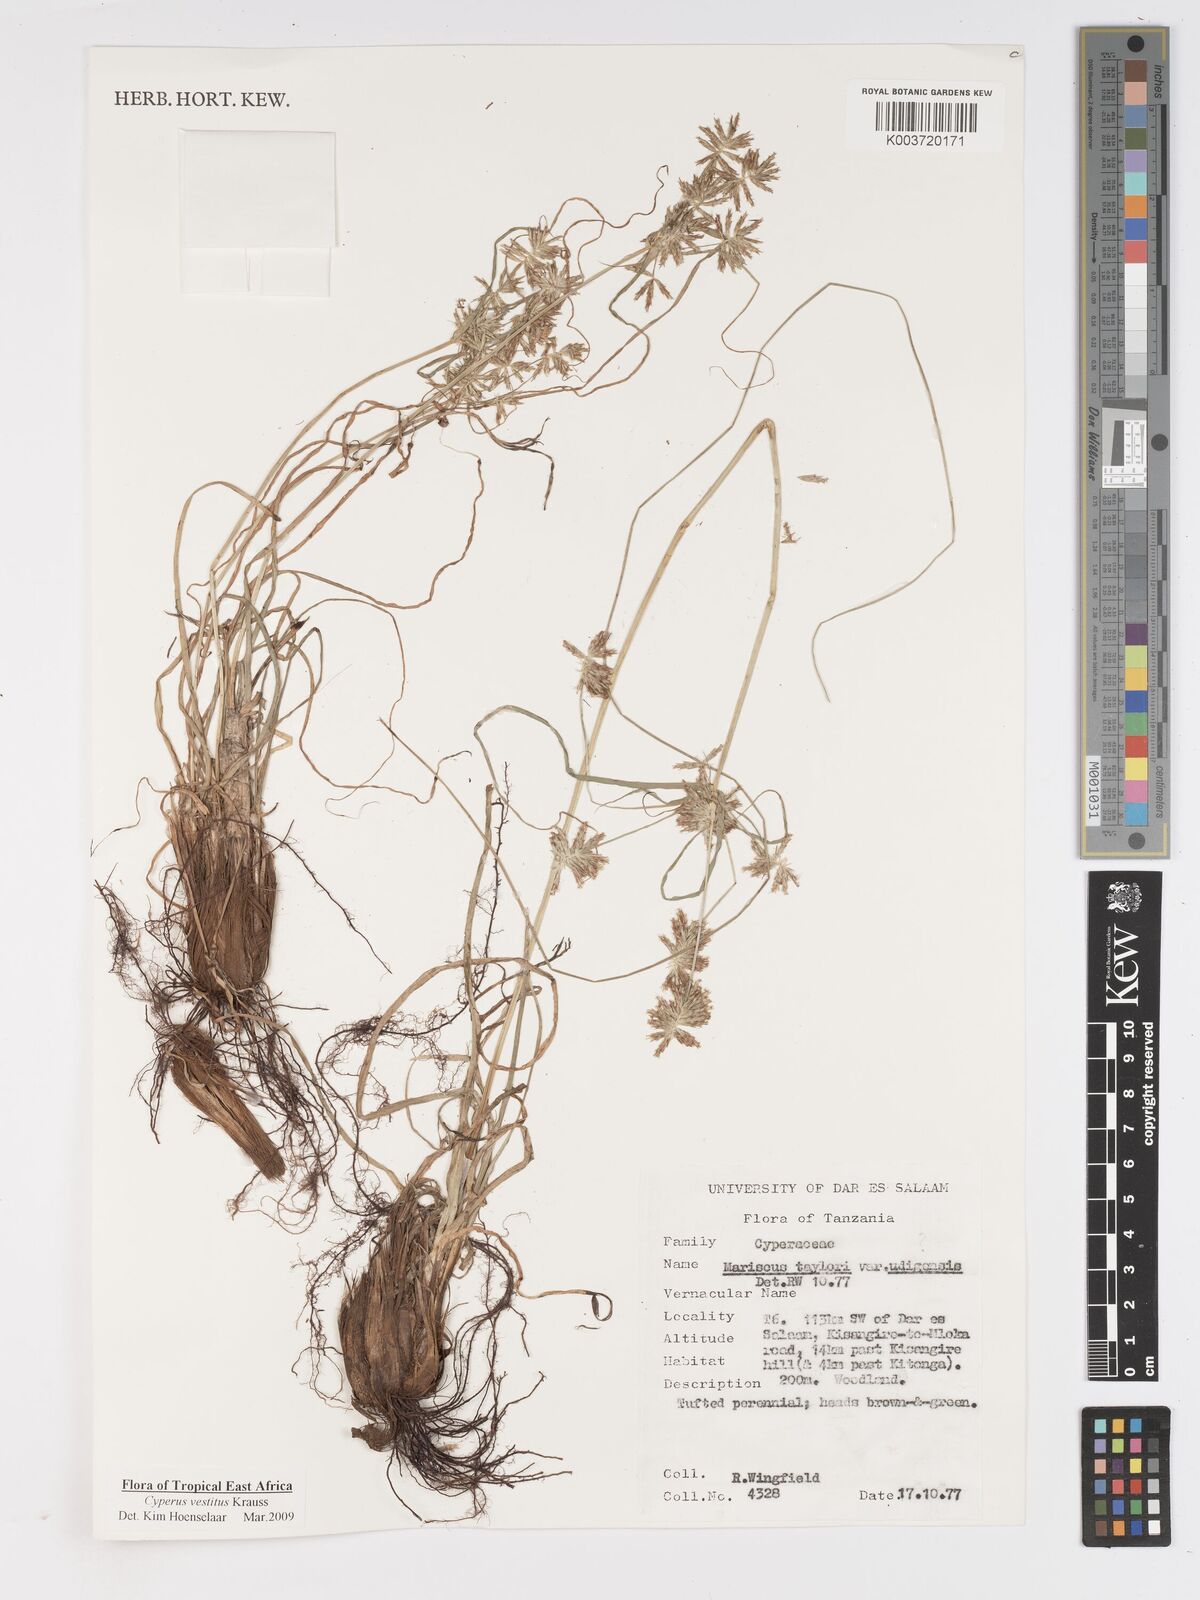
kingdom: Plantae
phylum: Tracheophyta
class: Liliopsida
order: Poales
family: Cyperaceae
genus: Cyperus
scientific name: Cyperus vestitus
